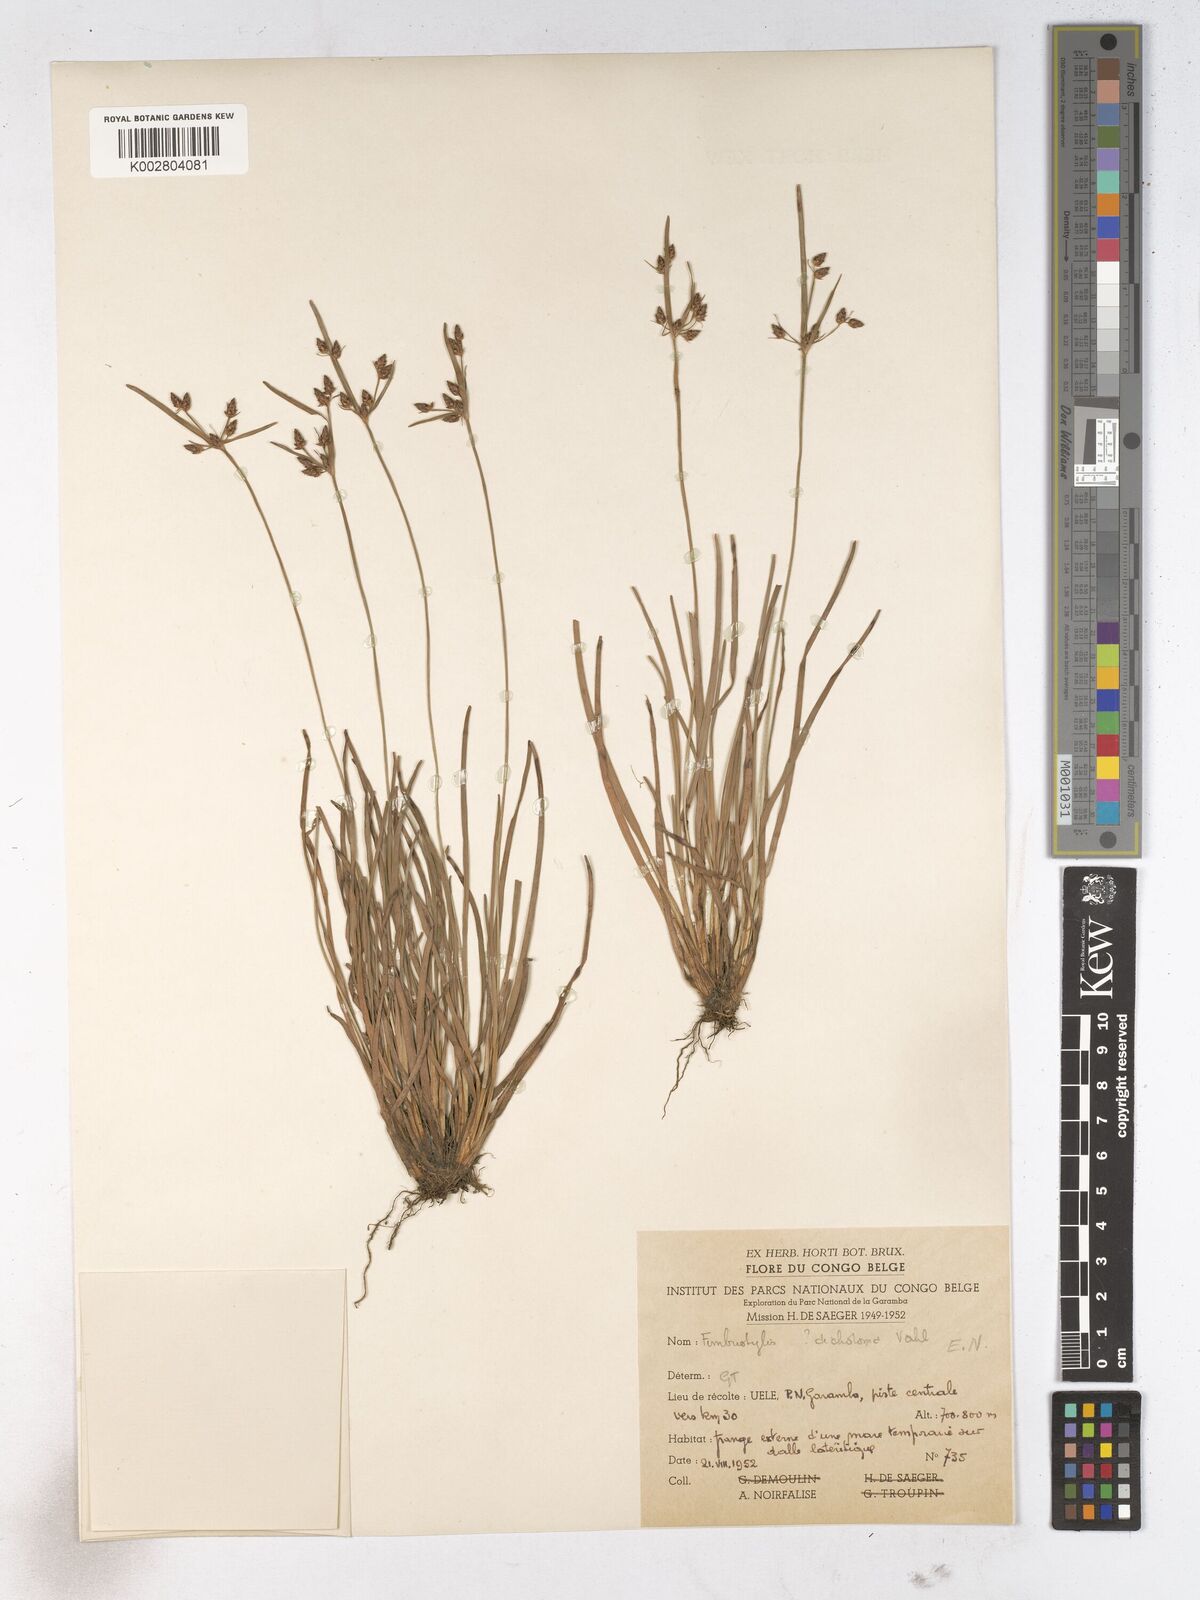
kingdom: Plantae
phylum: Tracheophyta
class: Liliopsida
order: Poales
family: Cyperaceae
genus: Fimbristylis
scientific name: Fimbristylis dichotoma
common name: Forked fimbry
